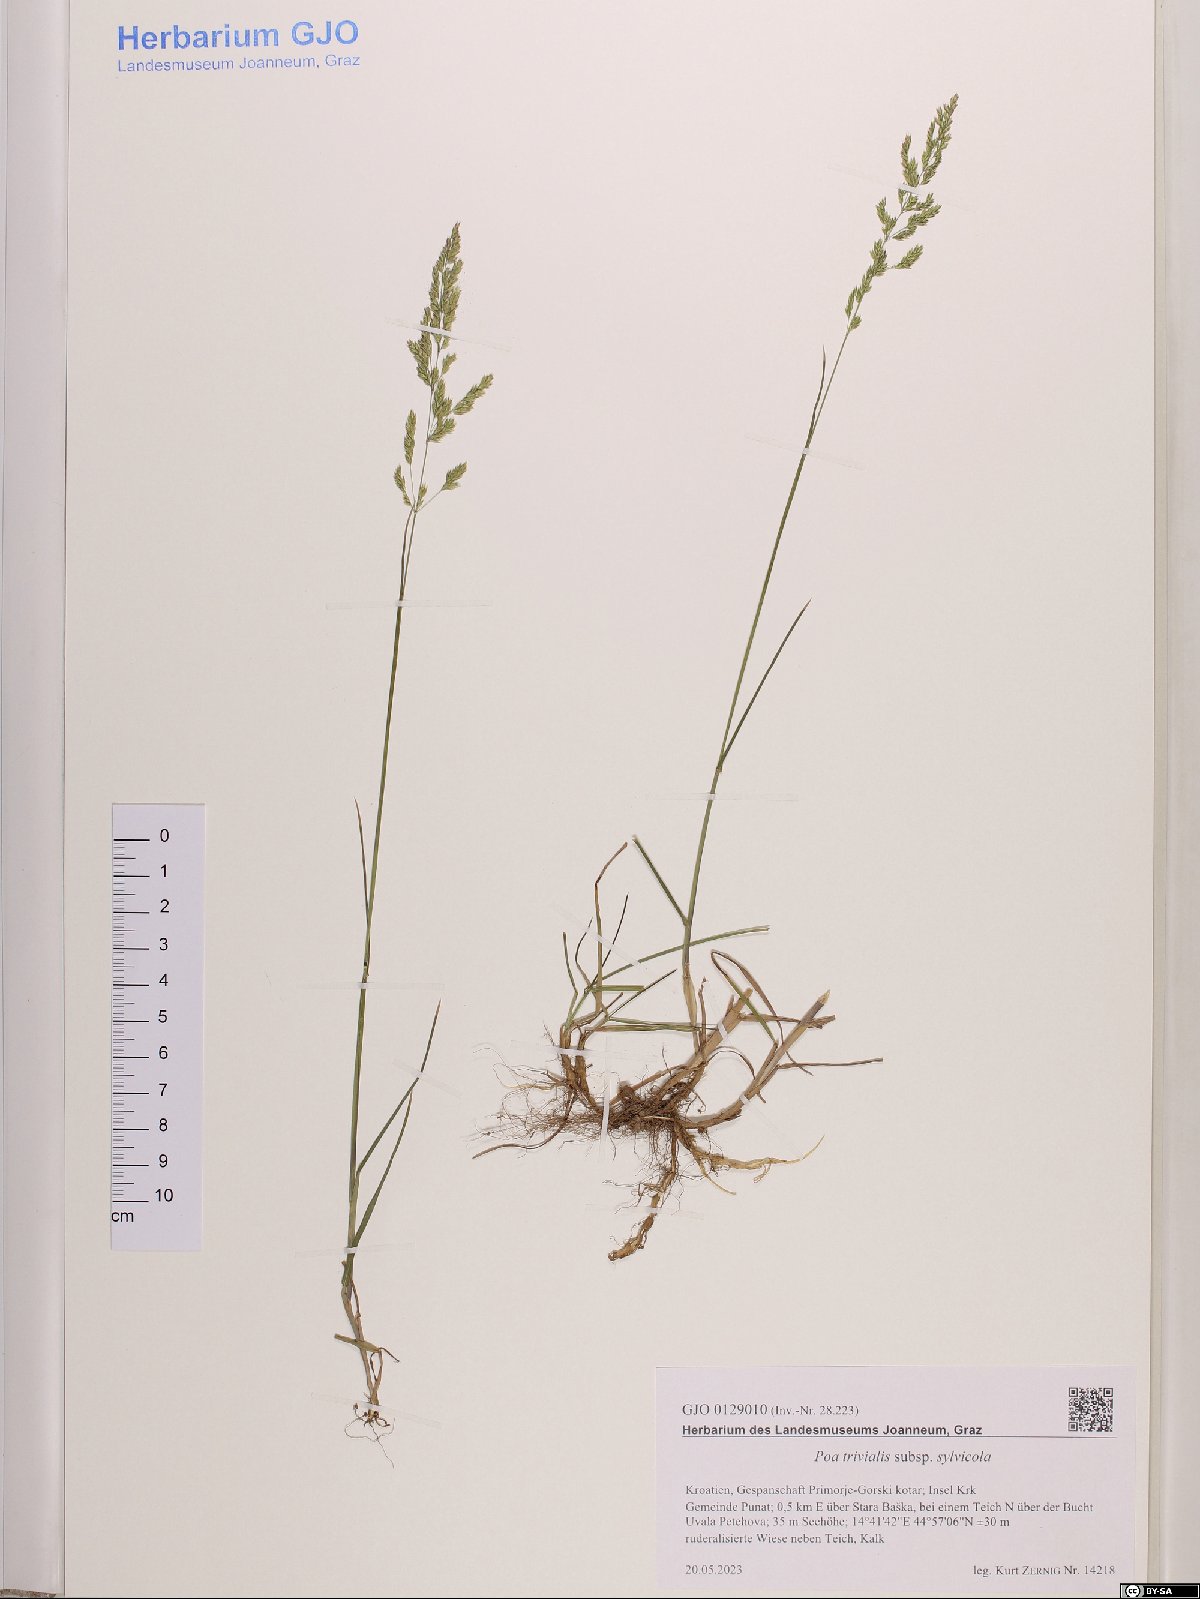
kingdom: Plantae
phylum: Tracheophyta
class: Liliopsida
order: Poales
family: Poaceae
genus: Poa
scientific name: Poa trivialis
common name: Rough bluegrass
